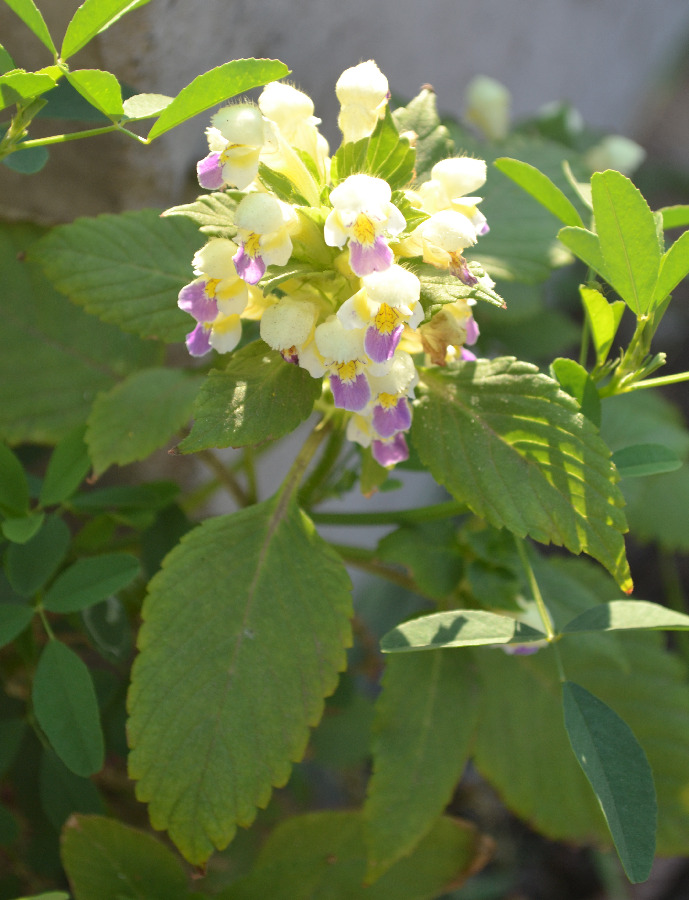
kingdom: Plantae
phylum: Tracheophyta
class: Magnoliopsida
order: Lamiales
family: Lamiaceae
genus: Galeopsis
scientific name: Galeopsis speciosa
